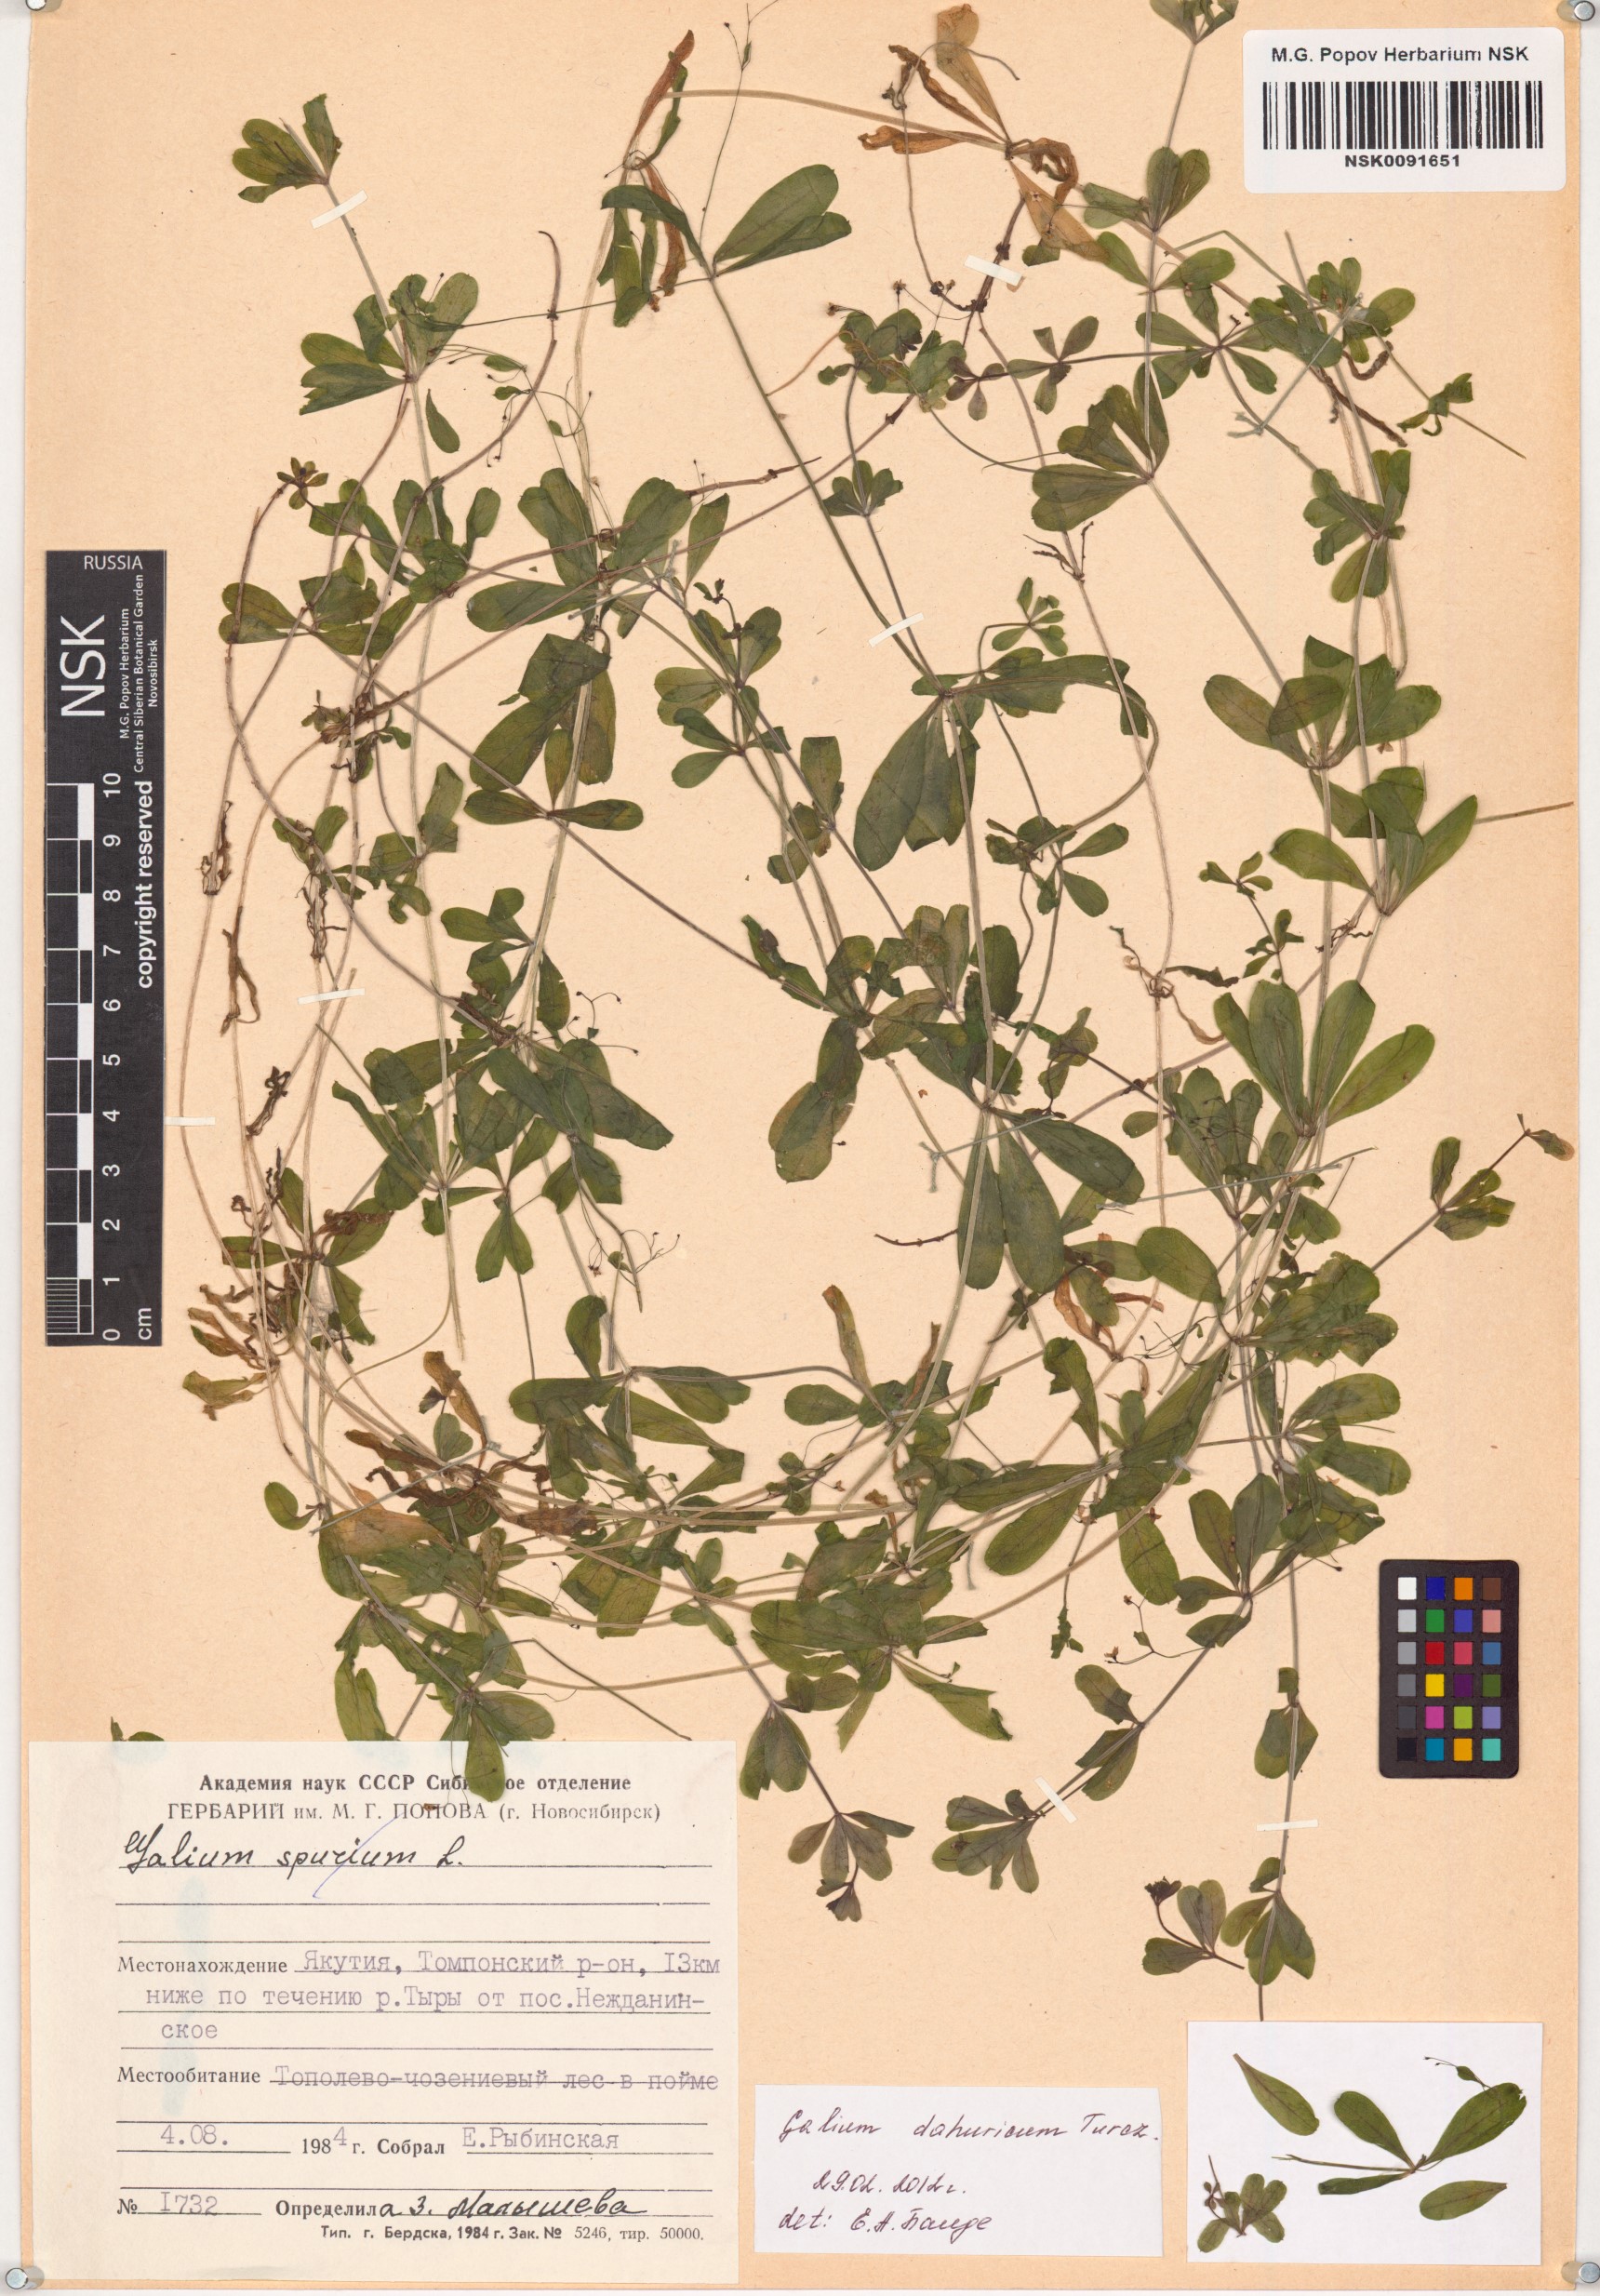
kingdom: Plantae
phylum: Tracheophyta
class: Magnoliopsida
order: Gentianales
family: Rubiaceae
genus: Galium
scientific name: Galium dahuricum
